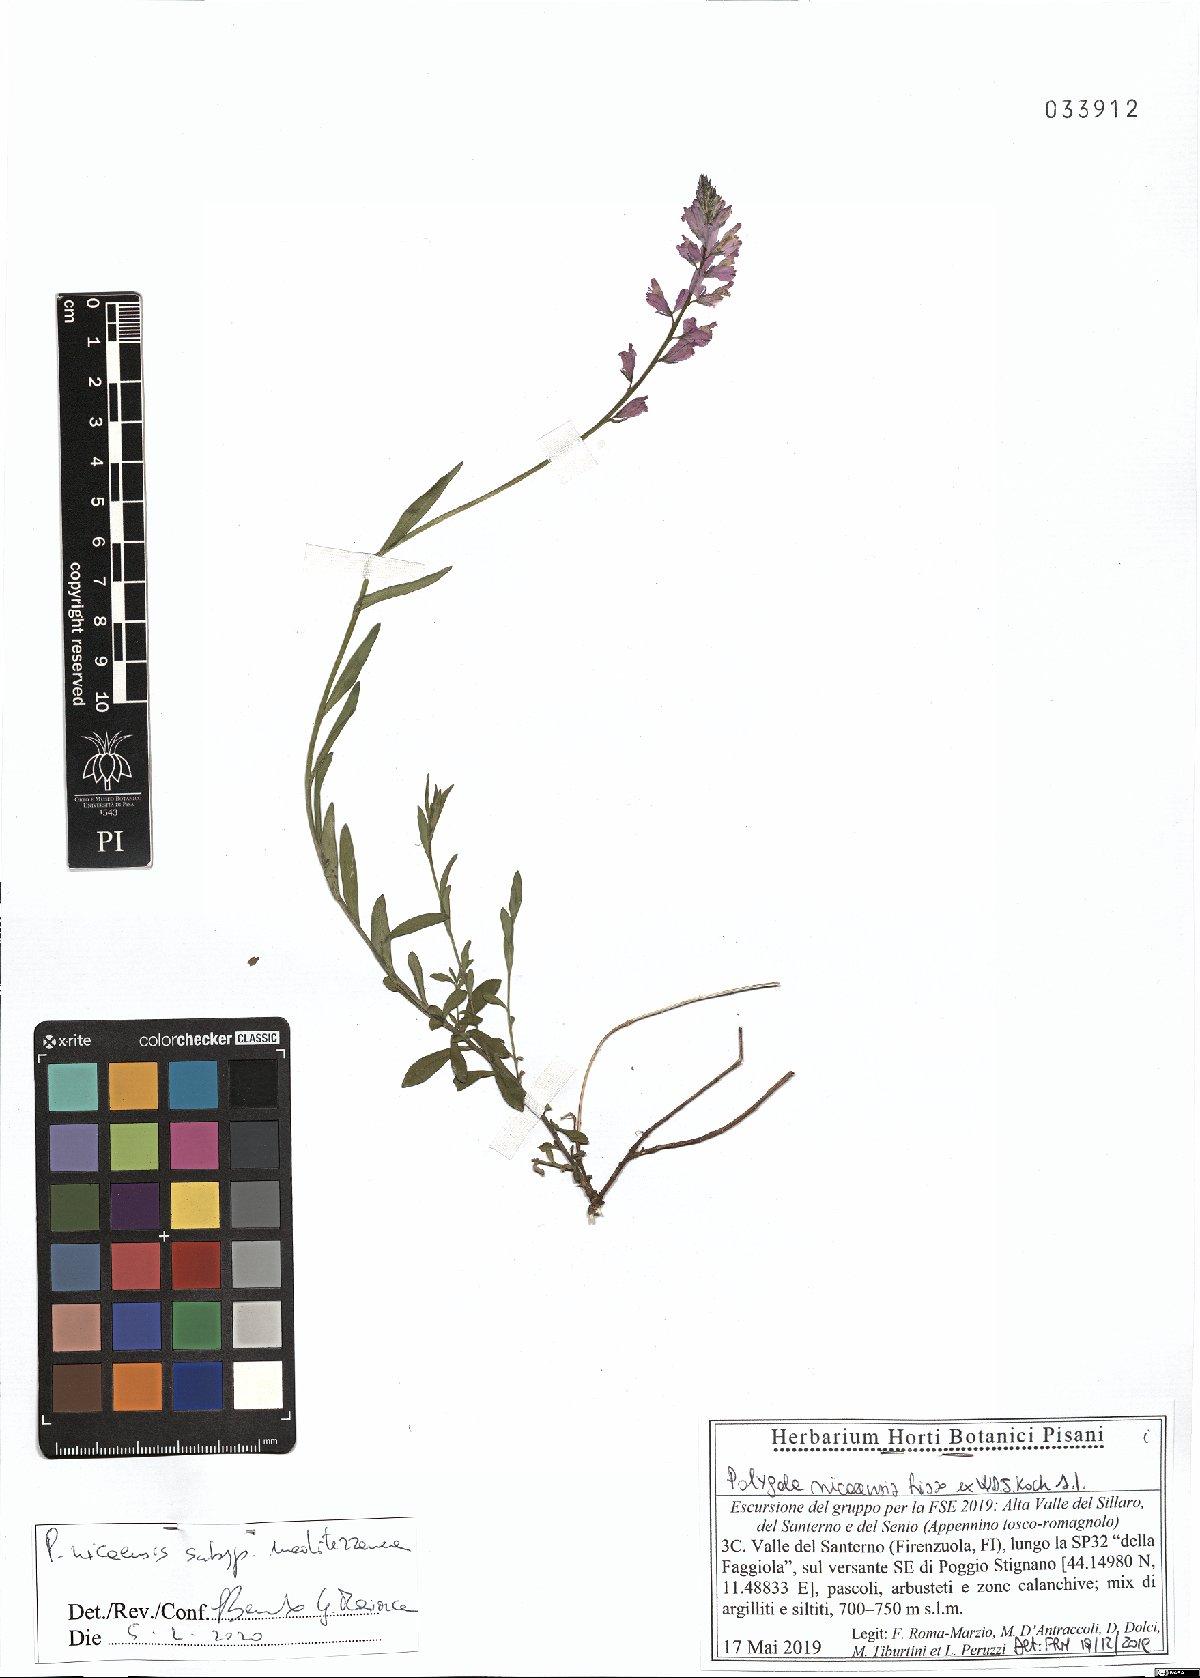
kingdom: Plantae
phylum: Tracheophyta
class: Magnoliopsida
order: Fabales
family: Polygalaceae
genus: Polygala
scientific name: Polygala nicaeensis
